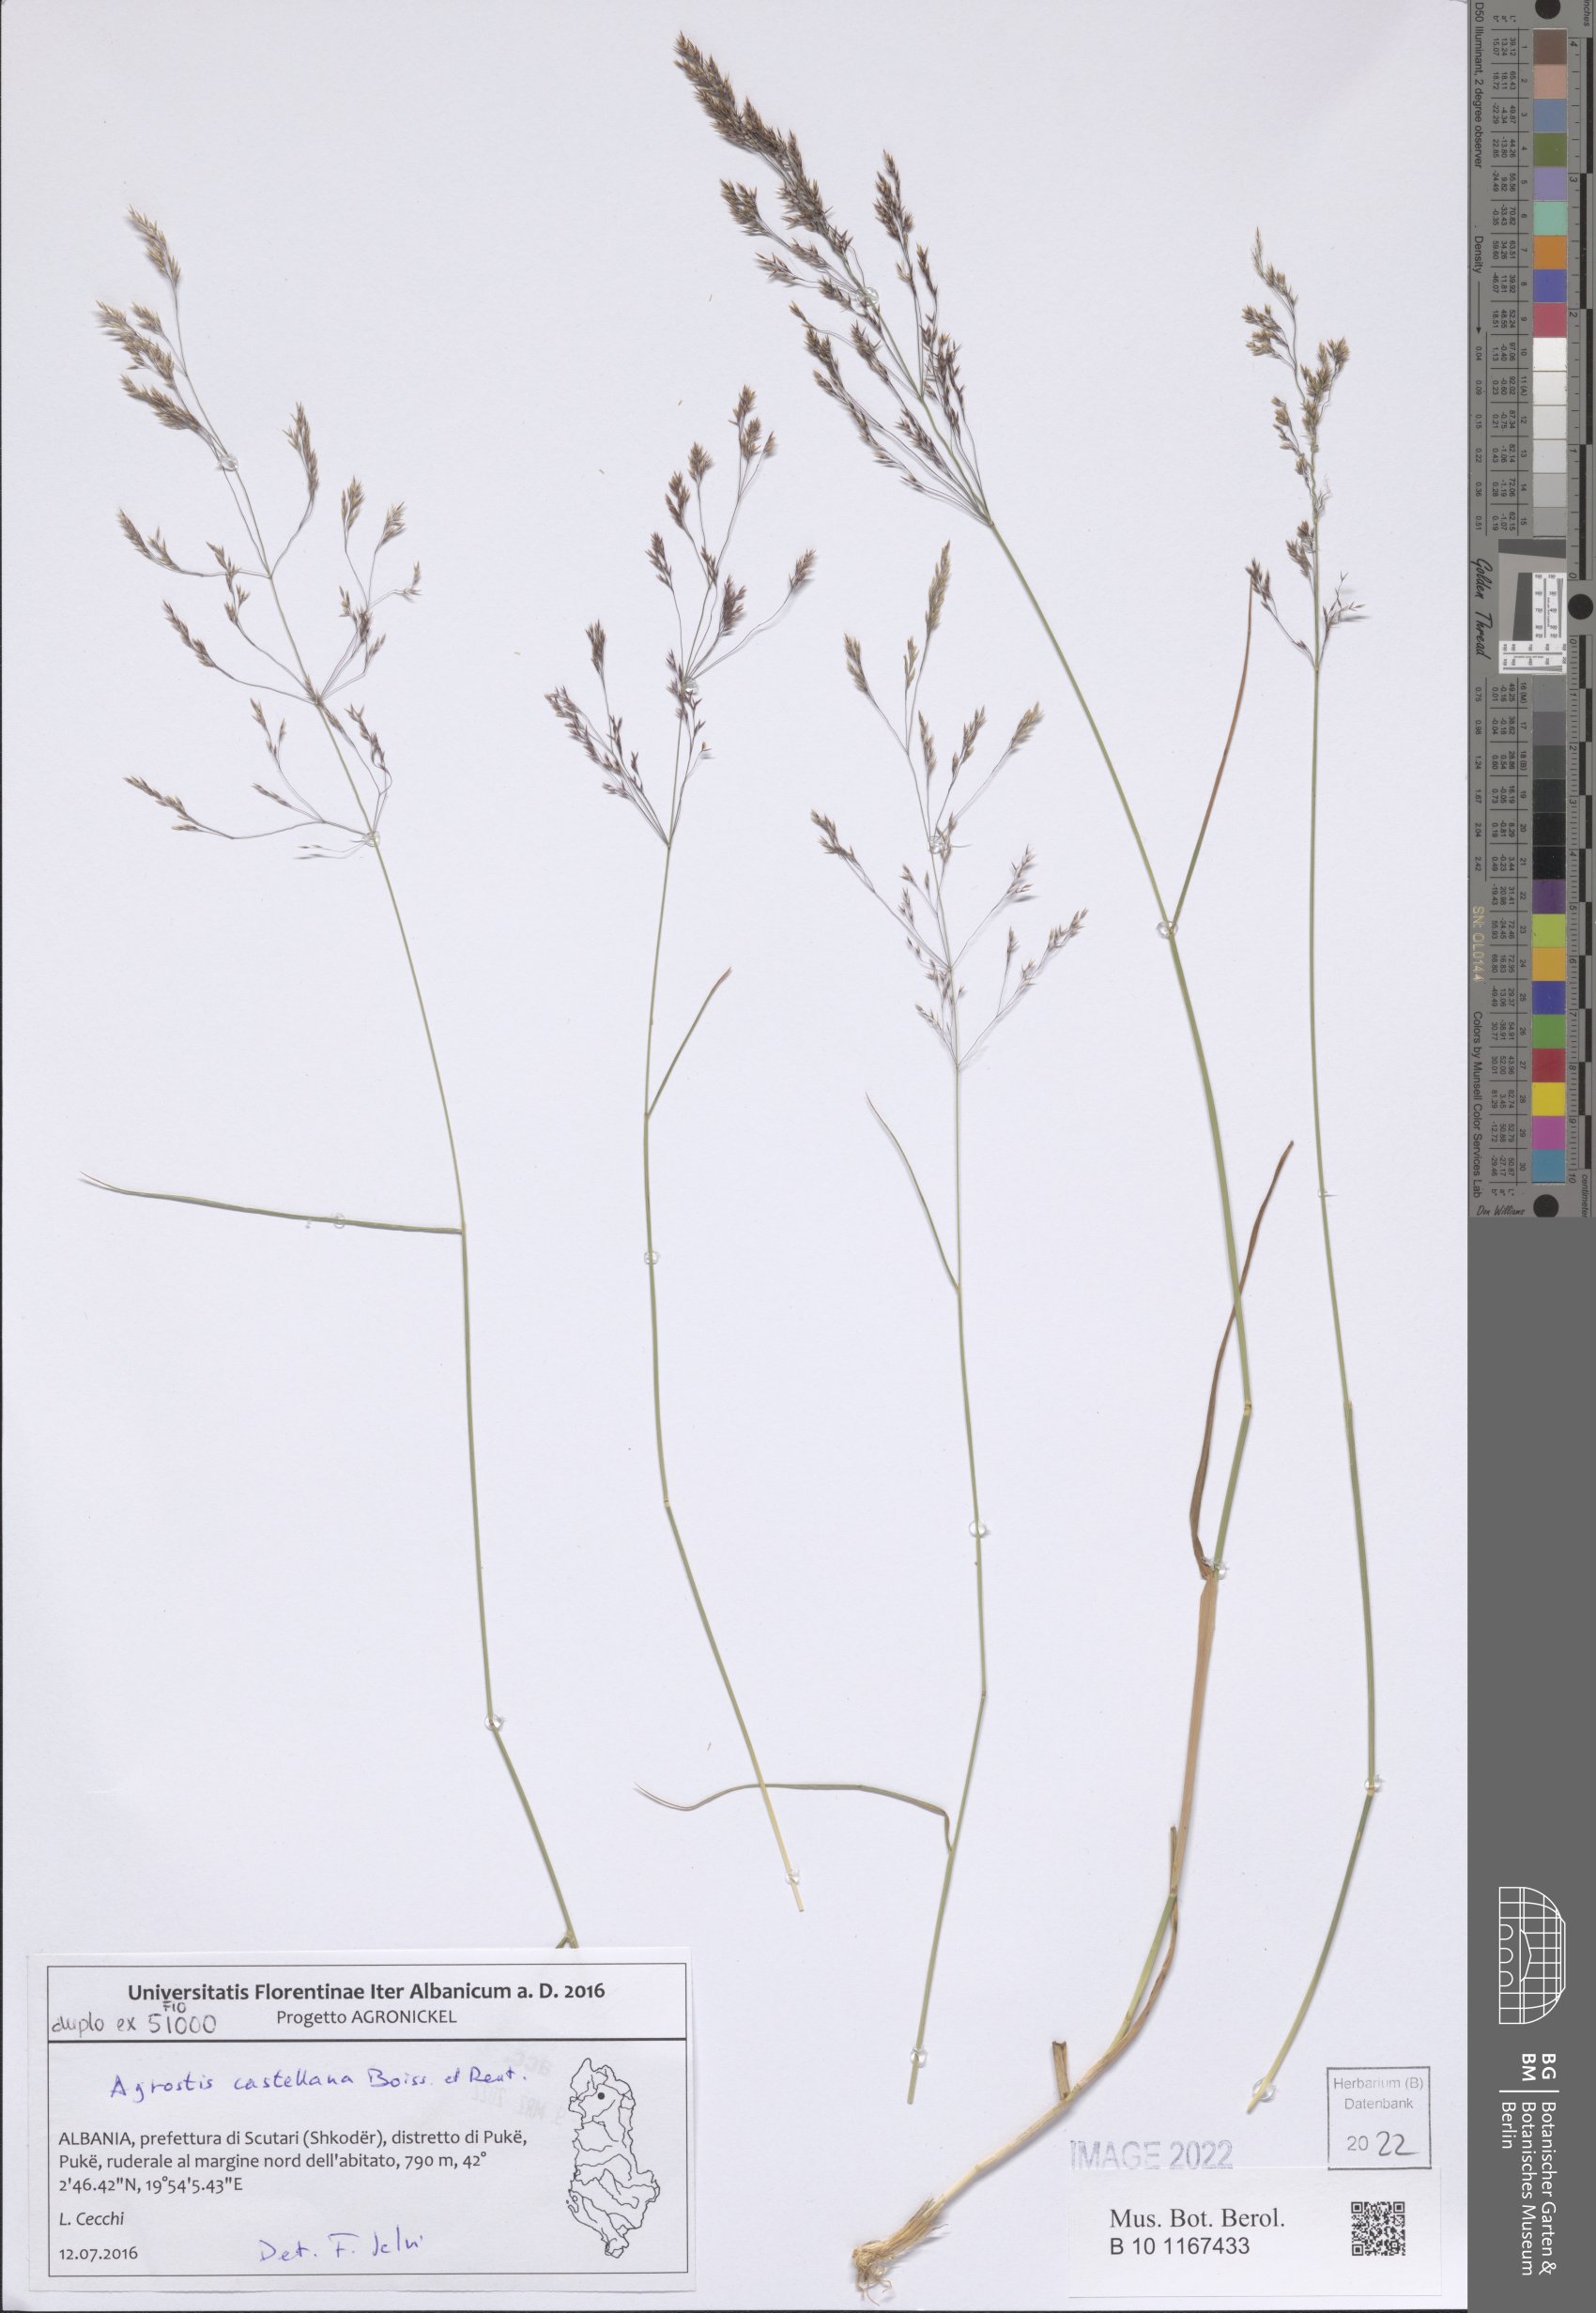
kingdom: Plantae
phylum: Tracheophyta
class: Liliopsida
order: Poales
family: Poaceae
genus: Agrostis
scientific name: Agrostis castellana
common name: Highland bent
